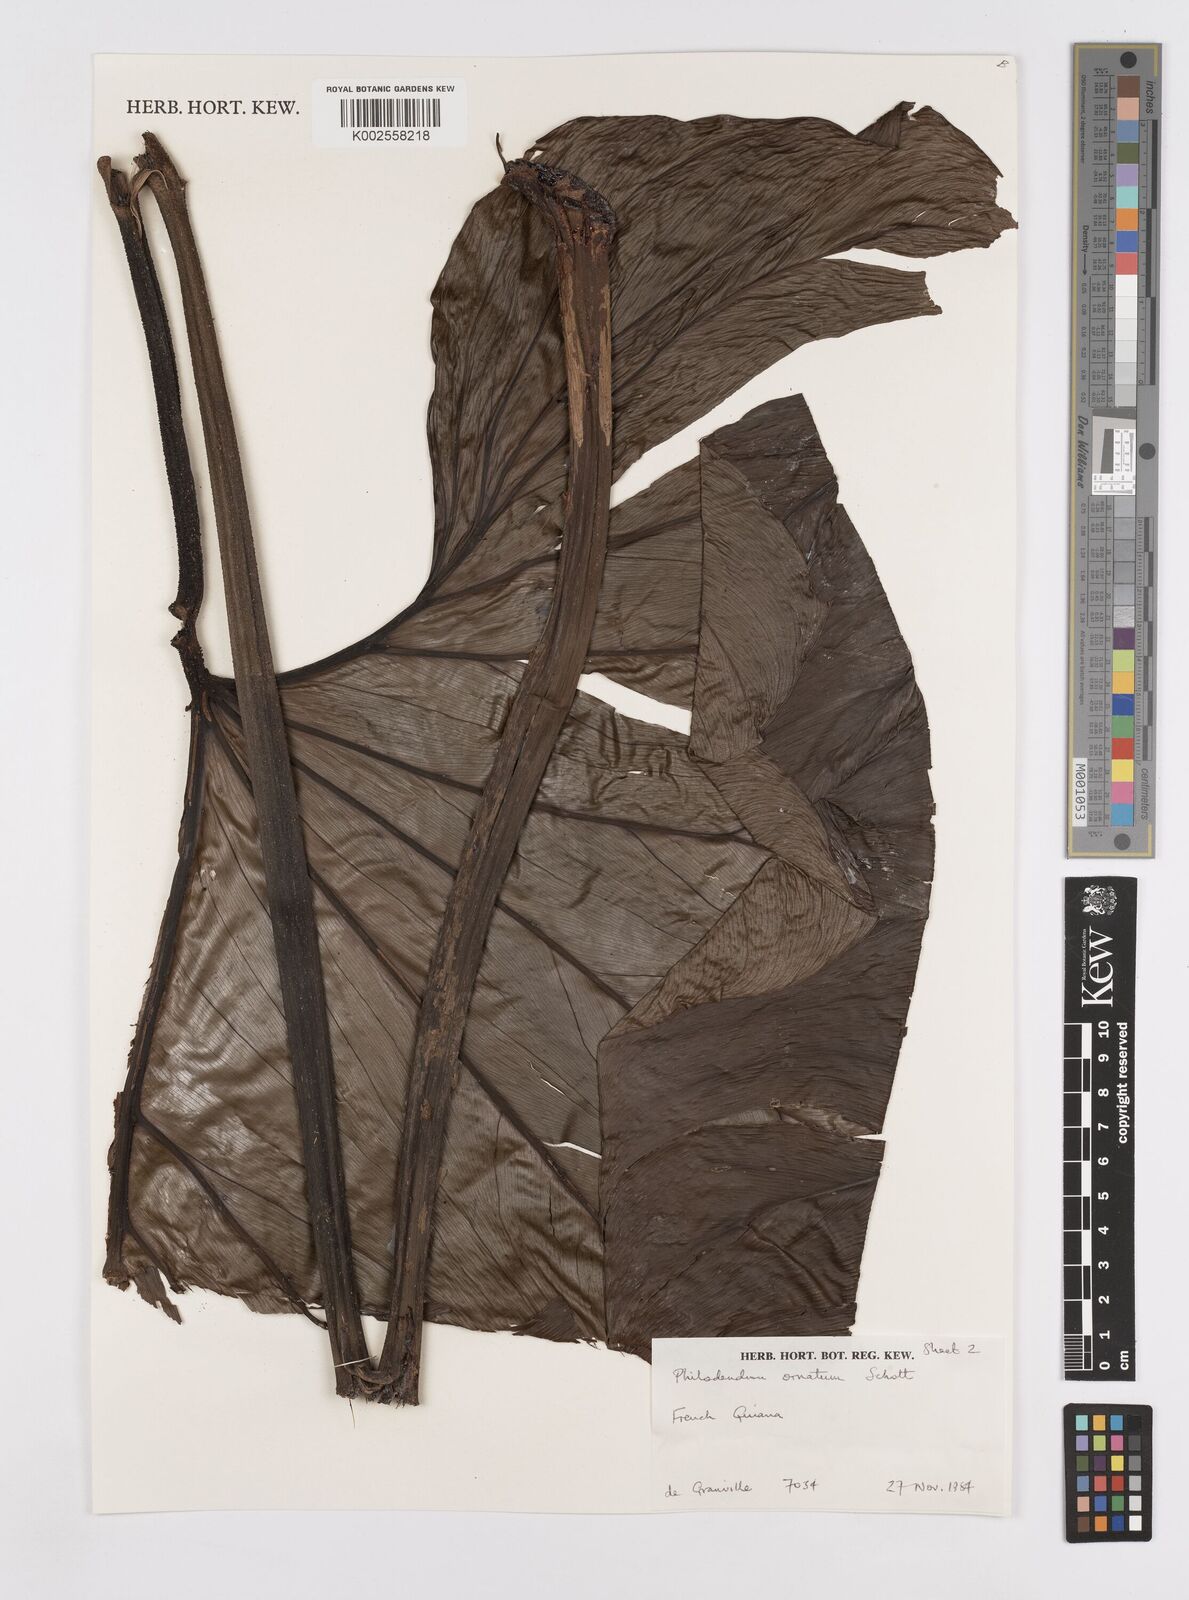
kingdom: Plantae
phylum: Tracheophyta
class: Liliopsida
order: Alismatales
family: Araceae
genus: Philodendron
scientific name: Philodendron ornatum
